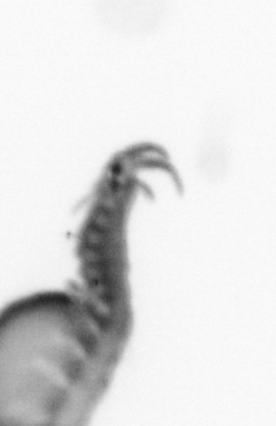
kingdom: Animalia
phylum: Annelida
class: Polychaeta
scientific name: Polychaeta
